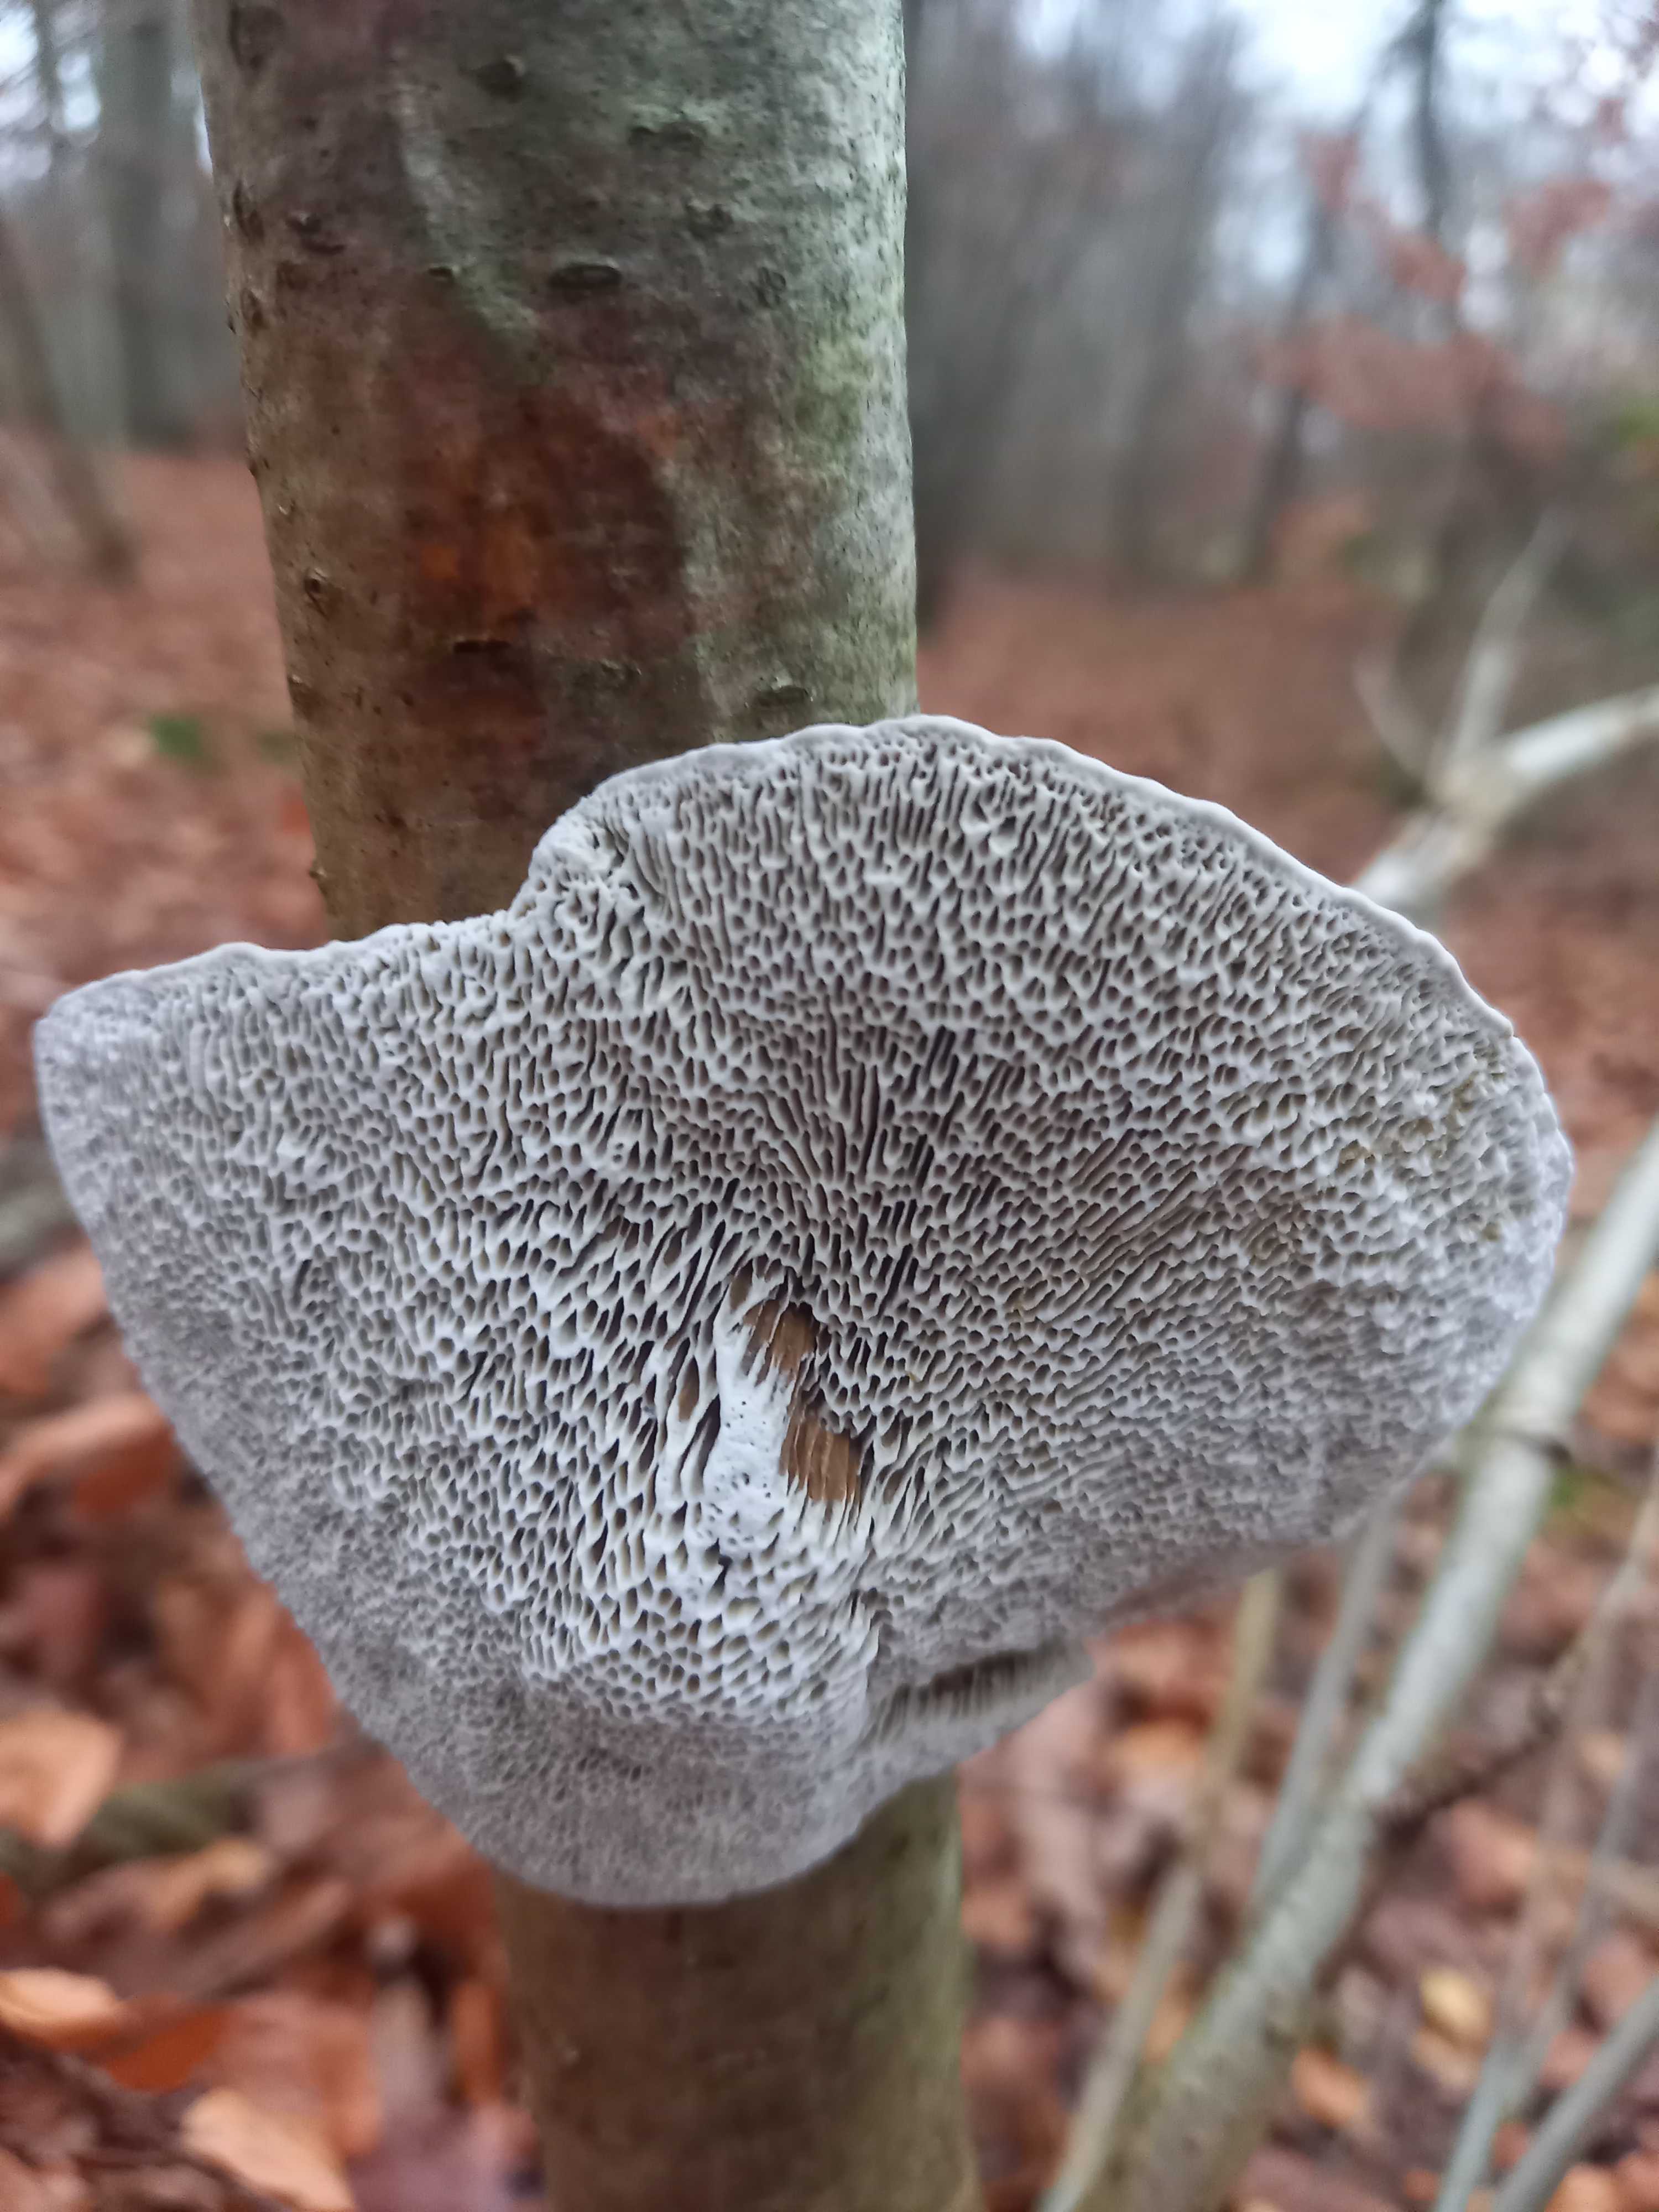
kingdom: Fungi
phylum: Basidiomycota
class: Agaricomycetes
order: Polyporales
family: Polyporaceae
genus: Daedaleopsis
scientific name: Daedaleopsis confragosa
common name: rødmende læderporesvamp
